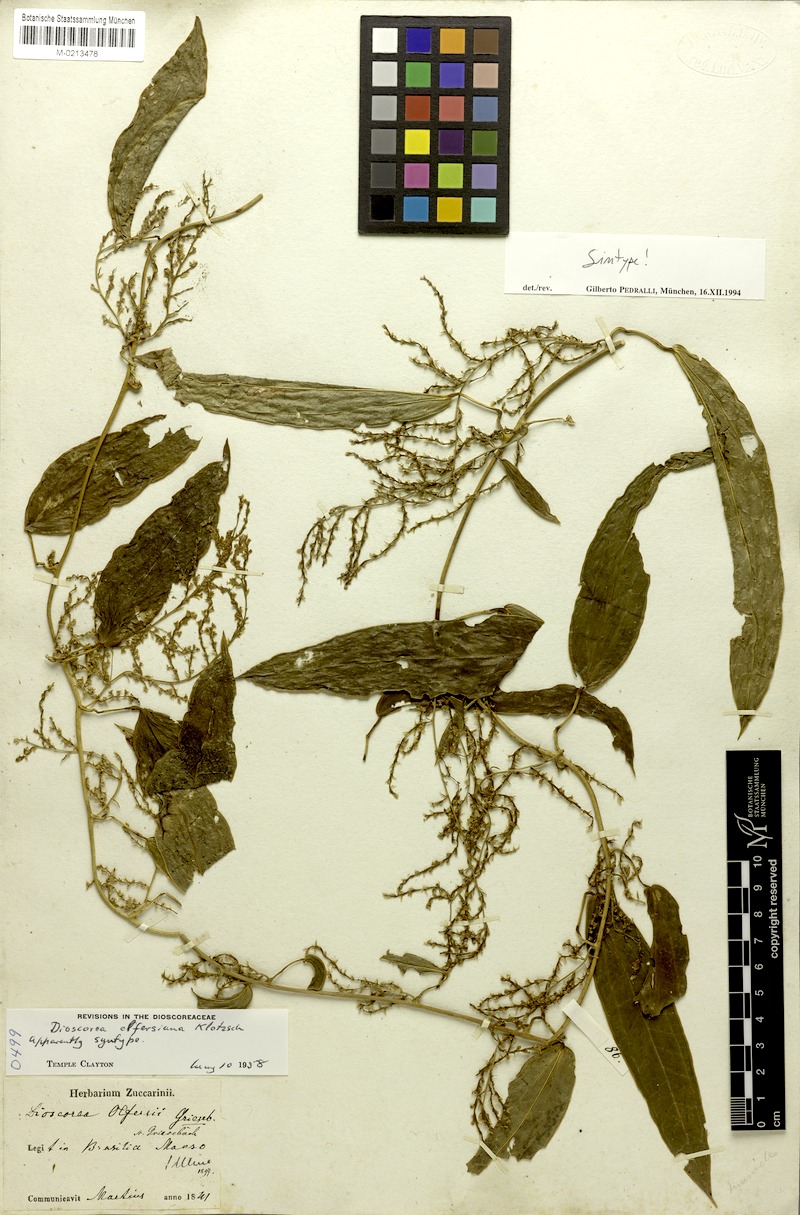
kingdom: Plantae
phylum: Tracheophyta
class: Liliopsida
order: Dioscoreales
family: Dioscoreaceae
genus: Dioscorea
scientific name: Dioscorea olfersiana
